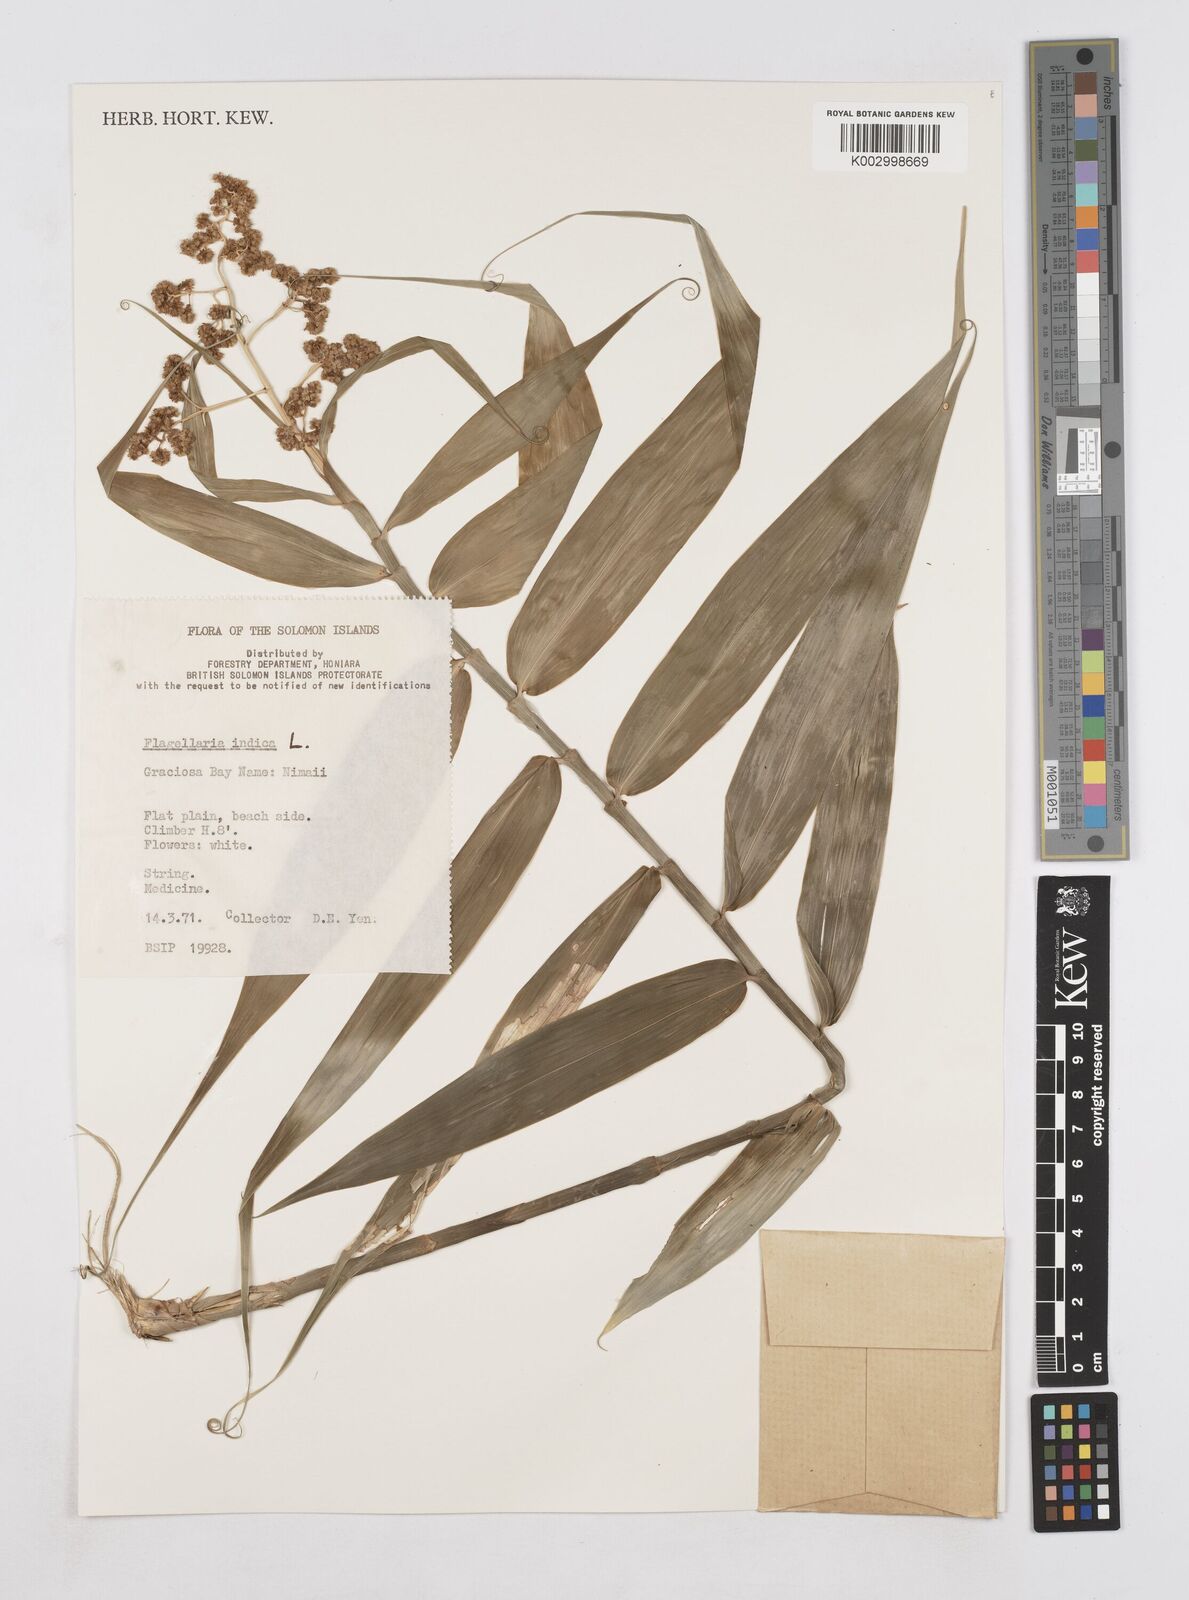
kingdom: Plantae
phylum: Tracheophyta
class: Liliopsida
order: Poales
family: Flagellariaceae
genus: Flagellaria
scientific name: Flagellaria indica
